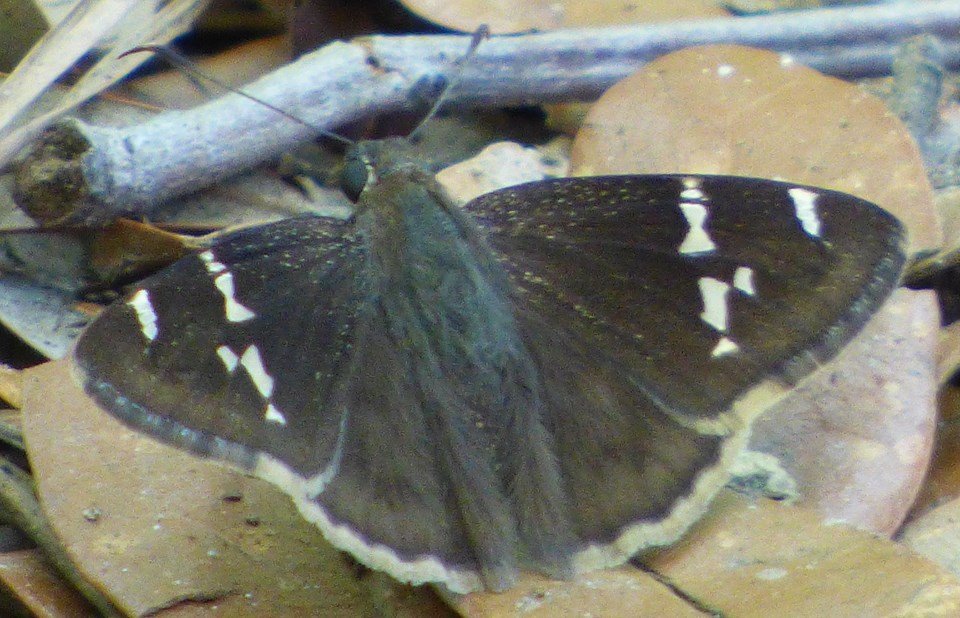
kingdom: Animalia
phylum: Arthropoda
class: Insecta
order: Lepidoptera
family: Hesperiidae
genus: Autochton
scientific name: Autochton
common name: Southern Cloudywing
